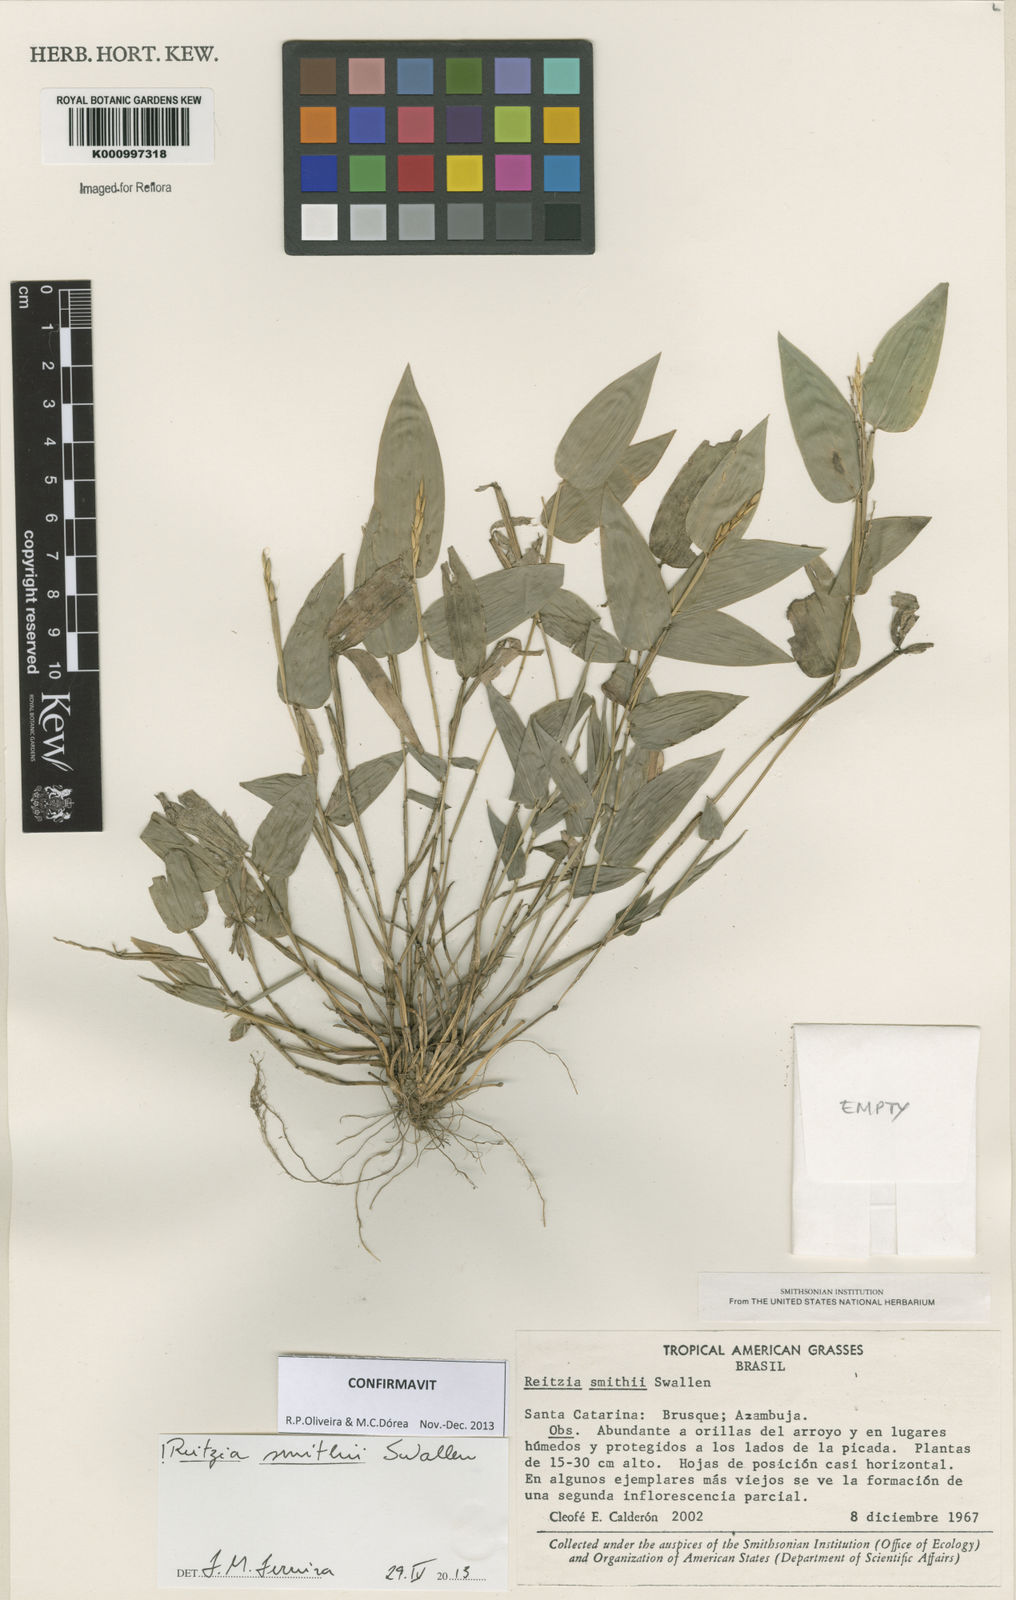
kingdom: Plantae
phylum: Tracheophyta
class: Liliopsida
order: Poales
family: Poaceae
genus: Reitzia
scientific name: Reitzia smithii
